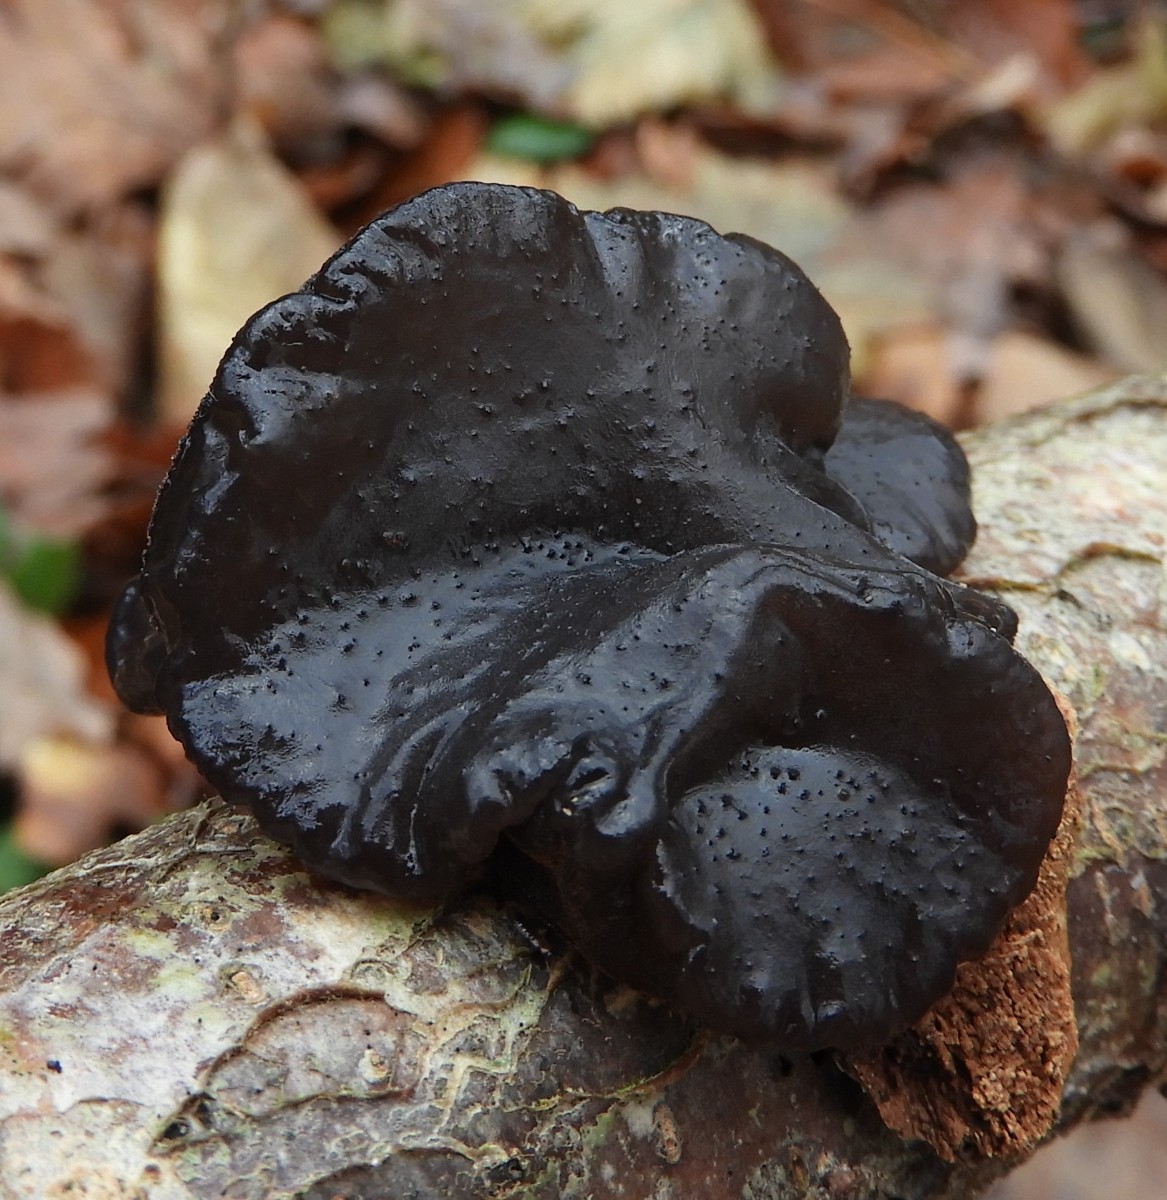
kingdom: Fungi
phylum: Basidiomycota
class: Agaricomycetes
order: Auriculariales
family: Auriculariaceae
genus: Exidia
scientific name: Exidia glandulosa
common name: ege-bævretop
